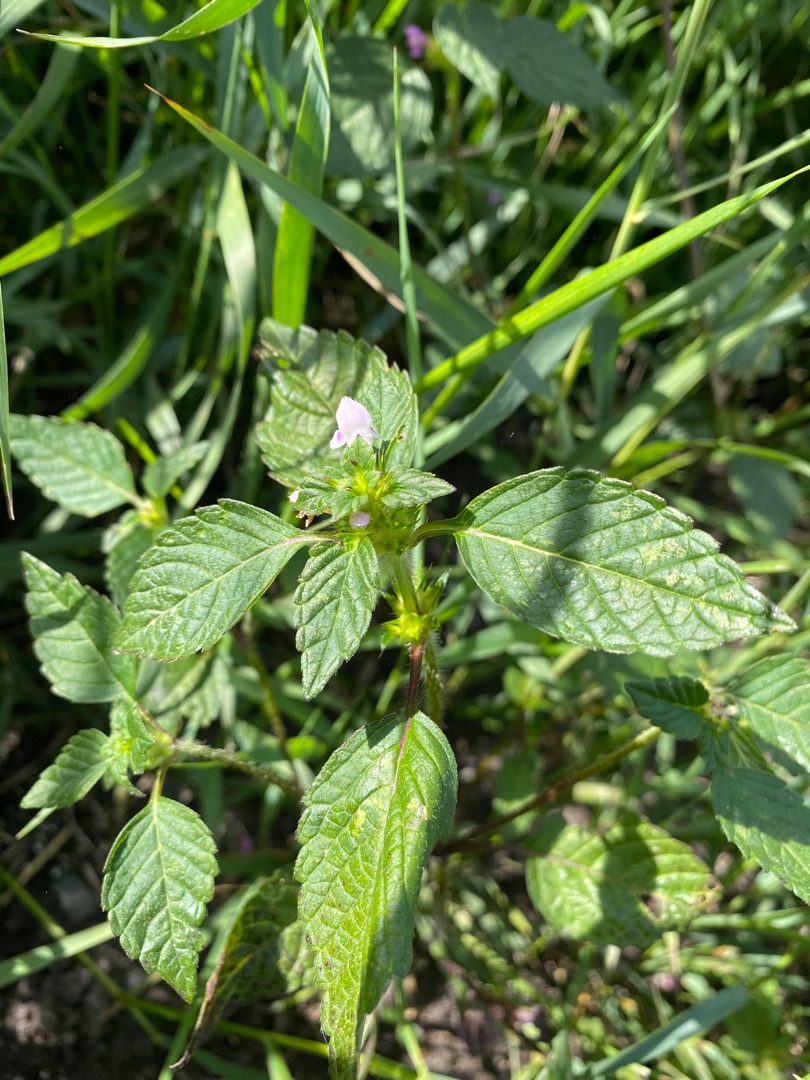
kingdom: Plantae
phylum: Tracheophyta
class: Magnoliopsida
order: Lamiales
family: Lamiaceae
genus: Galeopsis
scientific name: Galeopsis
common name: Hanekroslægten
